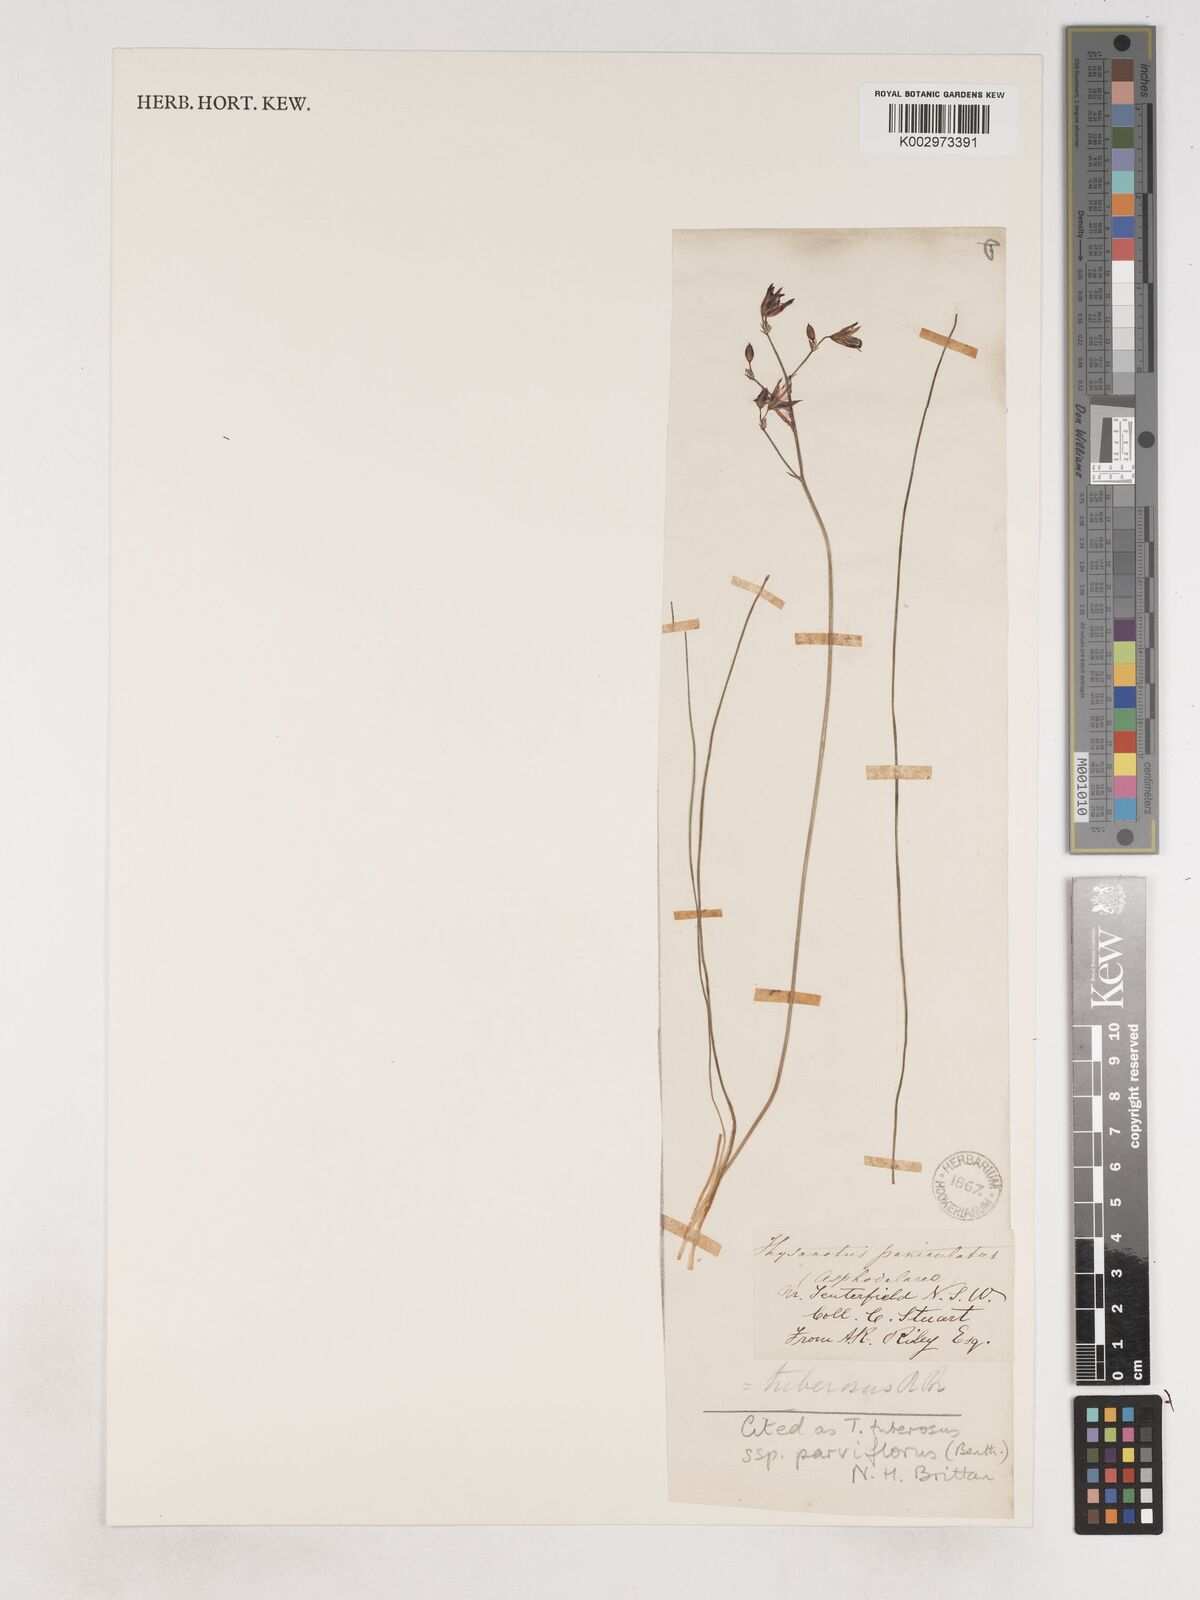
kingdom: Plantae
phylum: Tracheophyta
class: Liliopsida
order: Asparagales
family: Asparagaceae
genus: Thysanotus
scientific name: Thysanotus tuberosus
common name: Common fringed-lily
